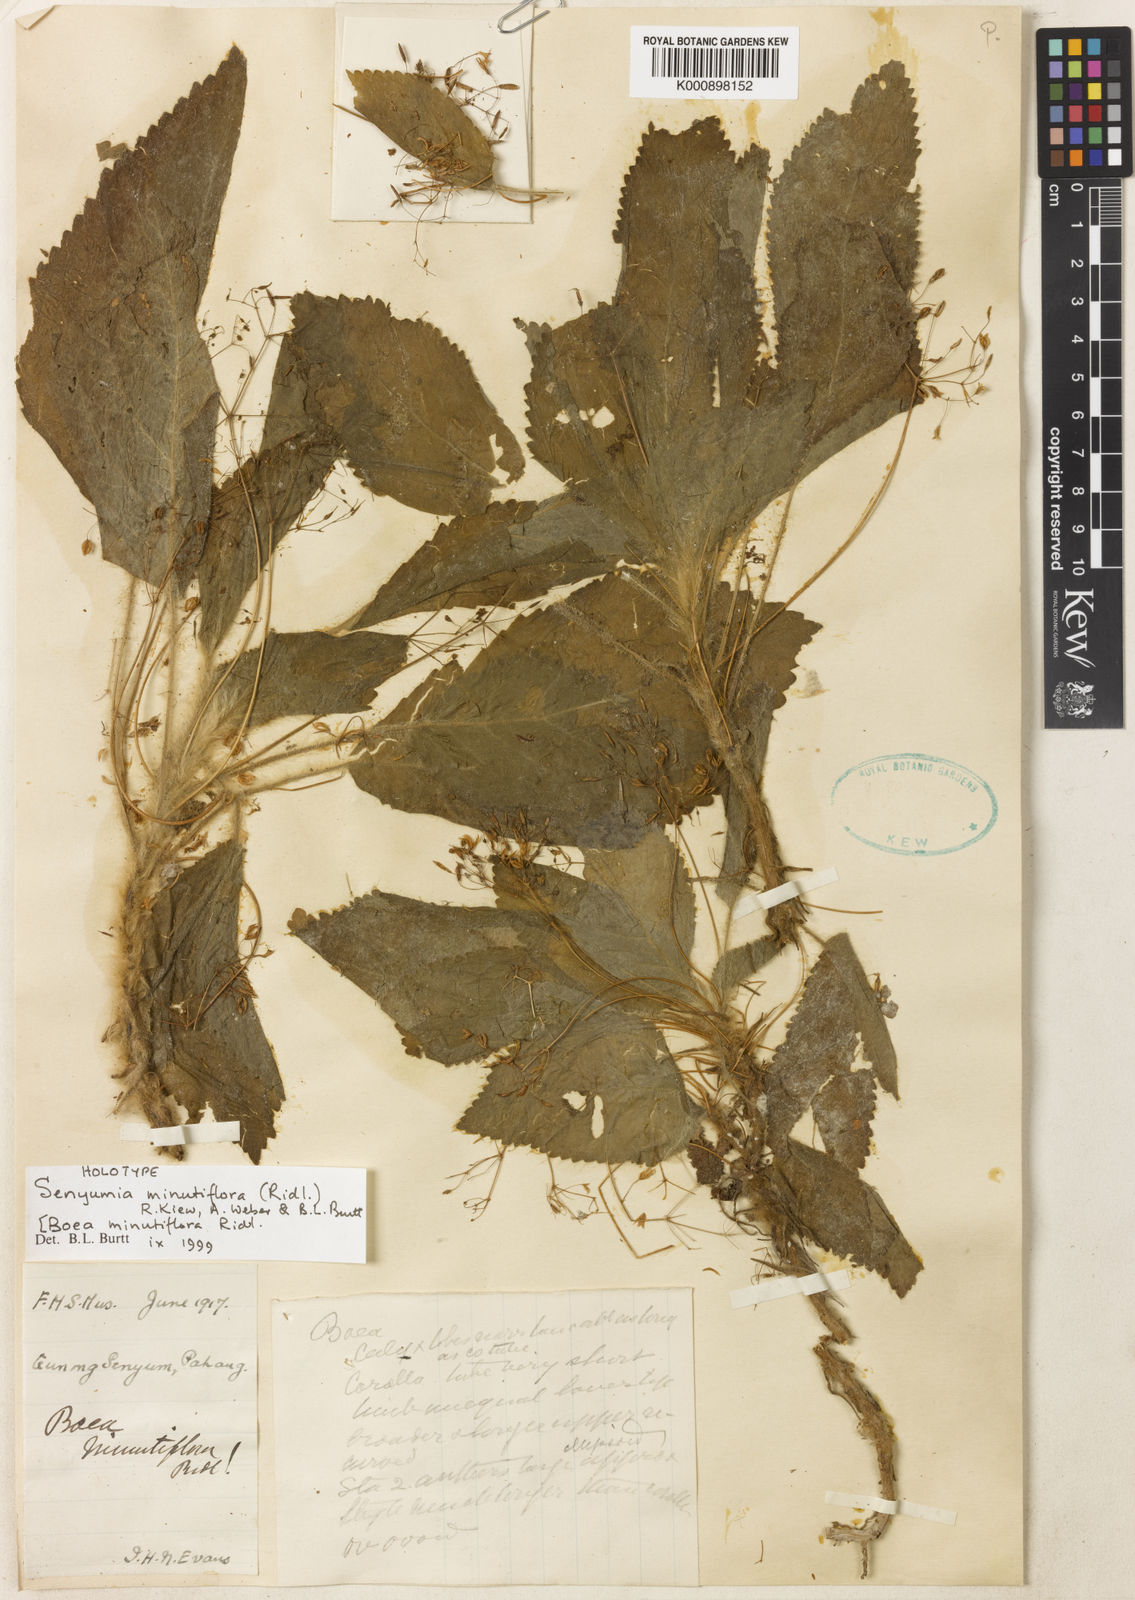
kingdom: Plantae
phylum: Tracheophyta
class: Magnoliopsida
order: Lamiales
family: Gesneriaceae
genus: Senyumia
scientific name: Senyumia minutiflora
